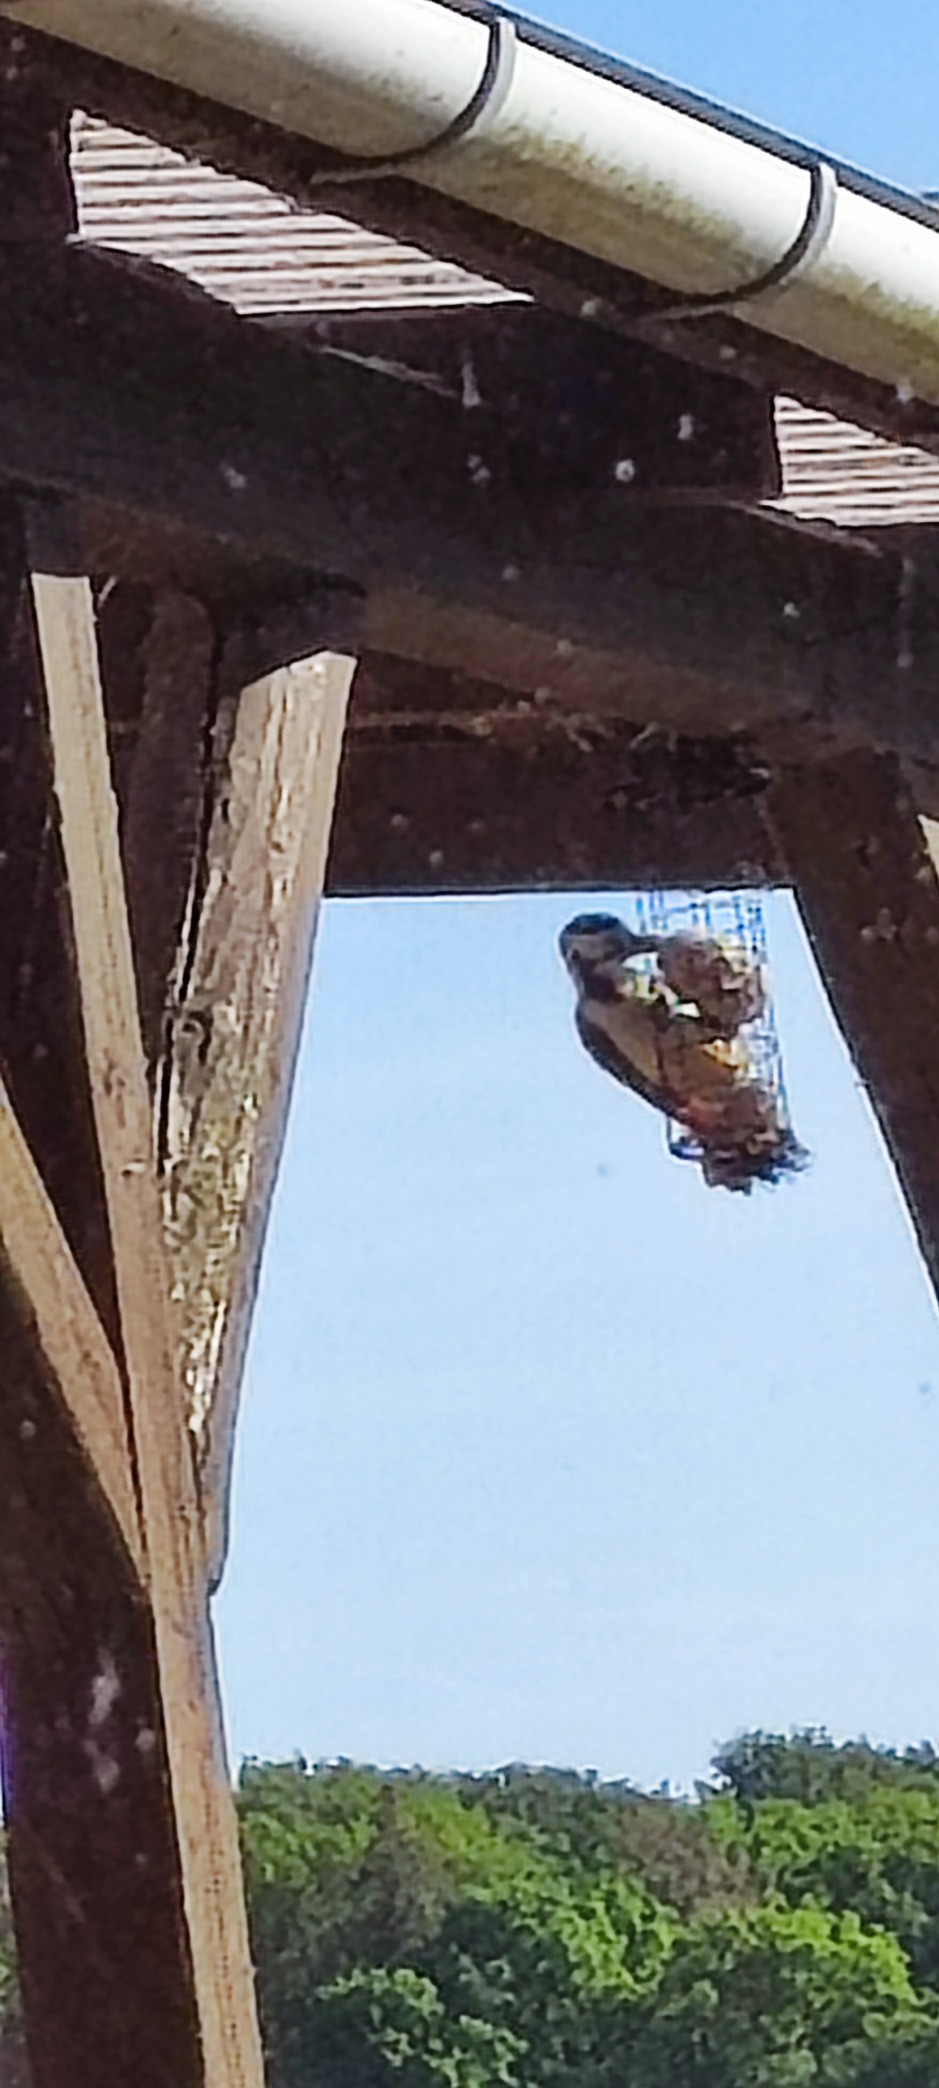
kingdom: Animalia
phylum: Chordata
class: Aves
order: Piciformes
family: Picidae
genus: Dendrocopos
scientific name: Dendrocopos major
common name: Stor flagspætte
